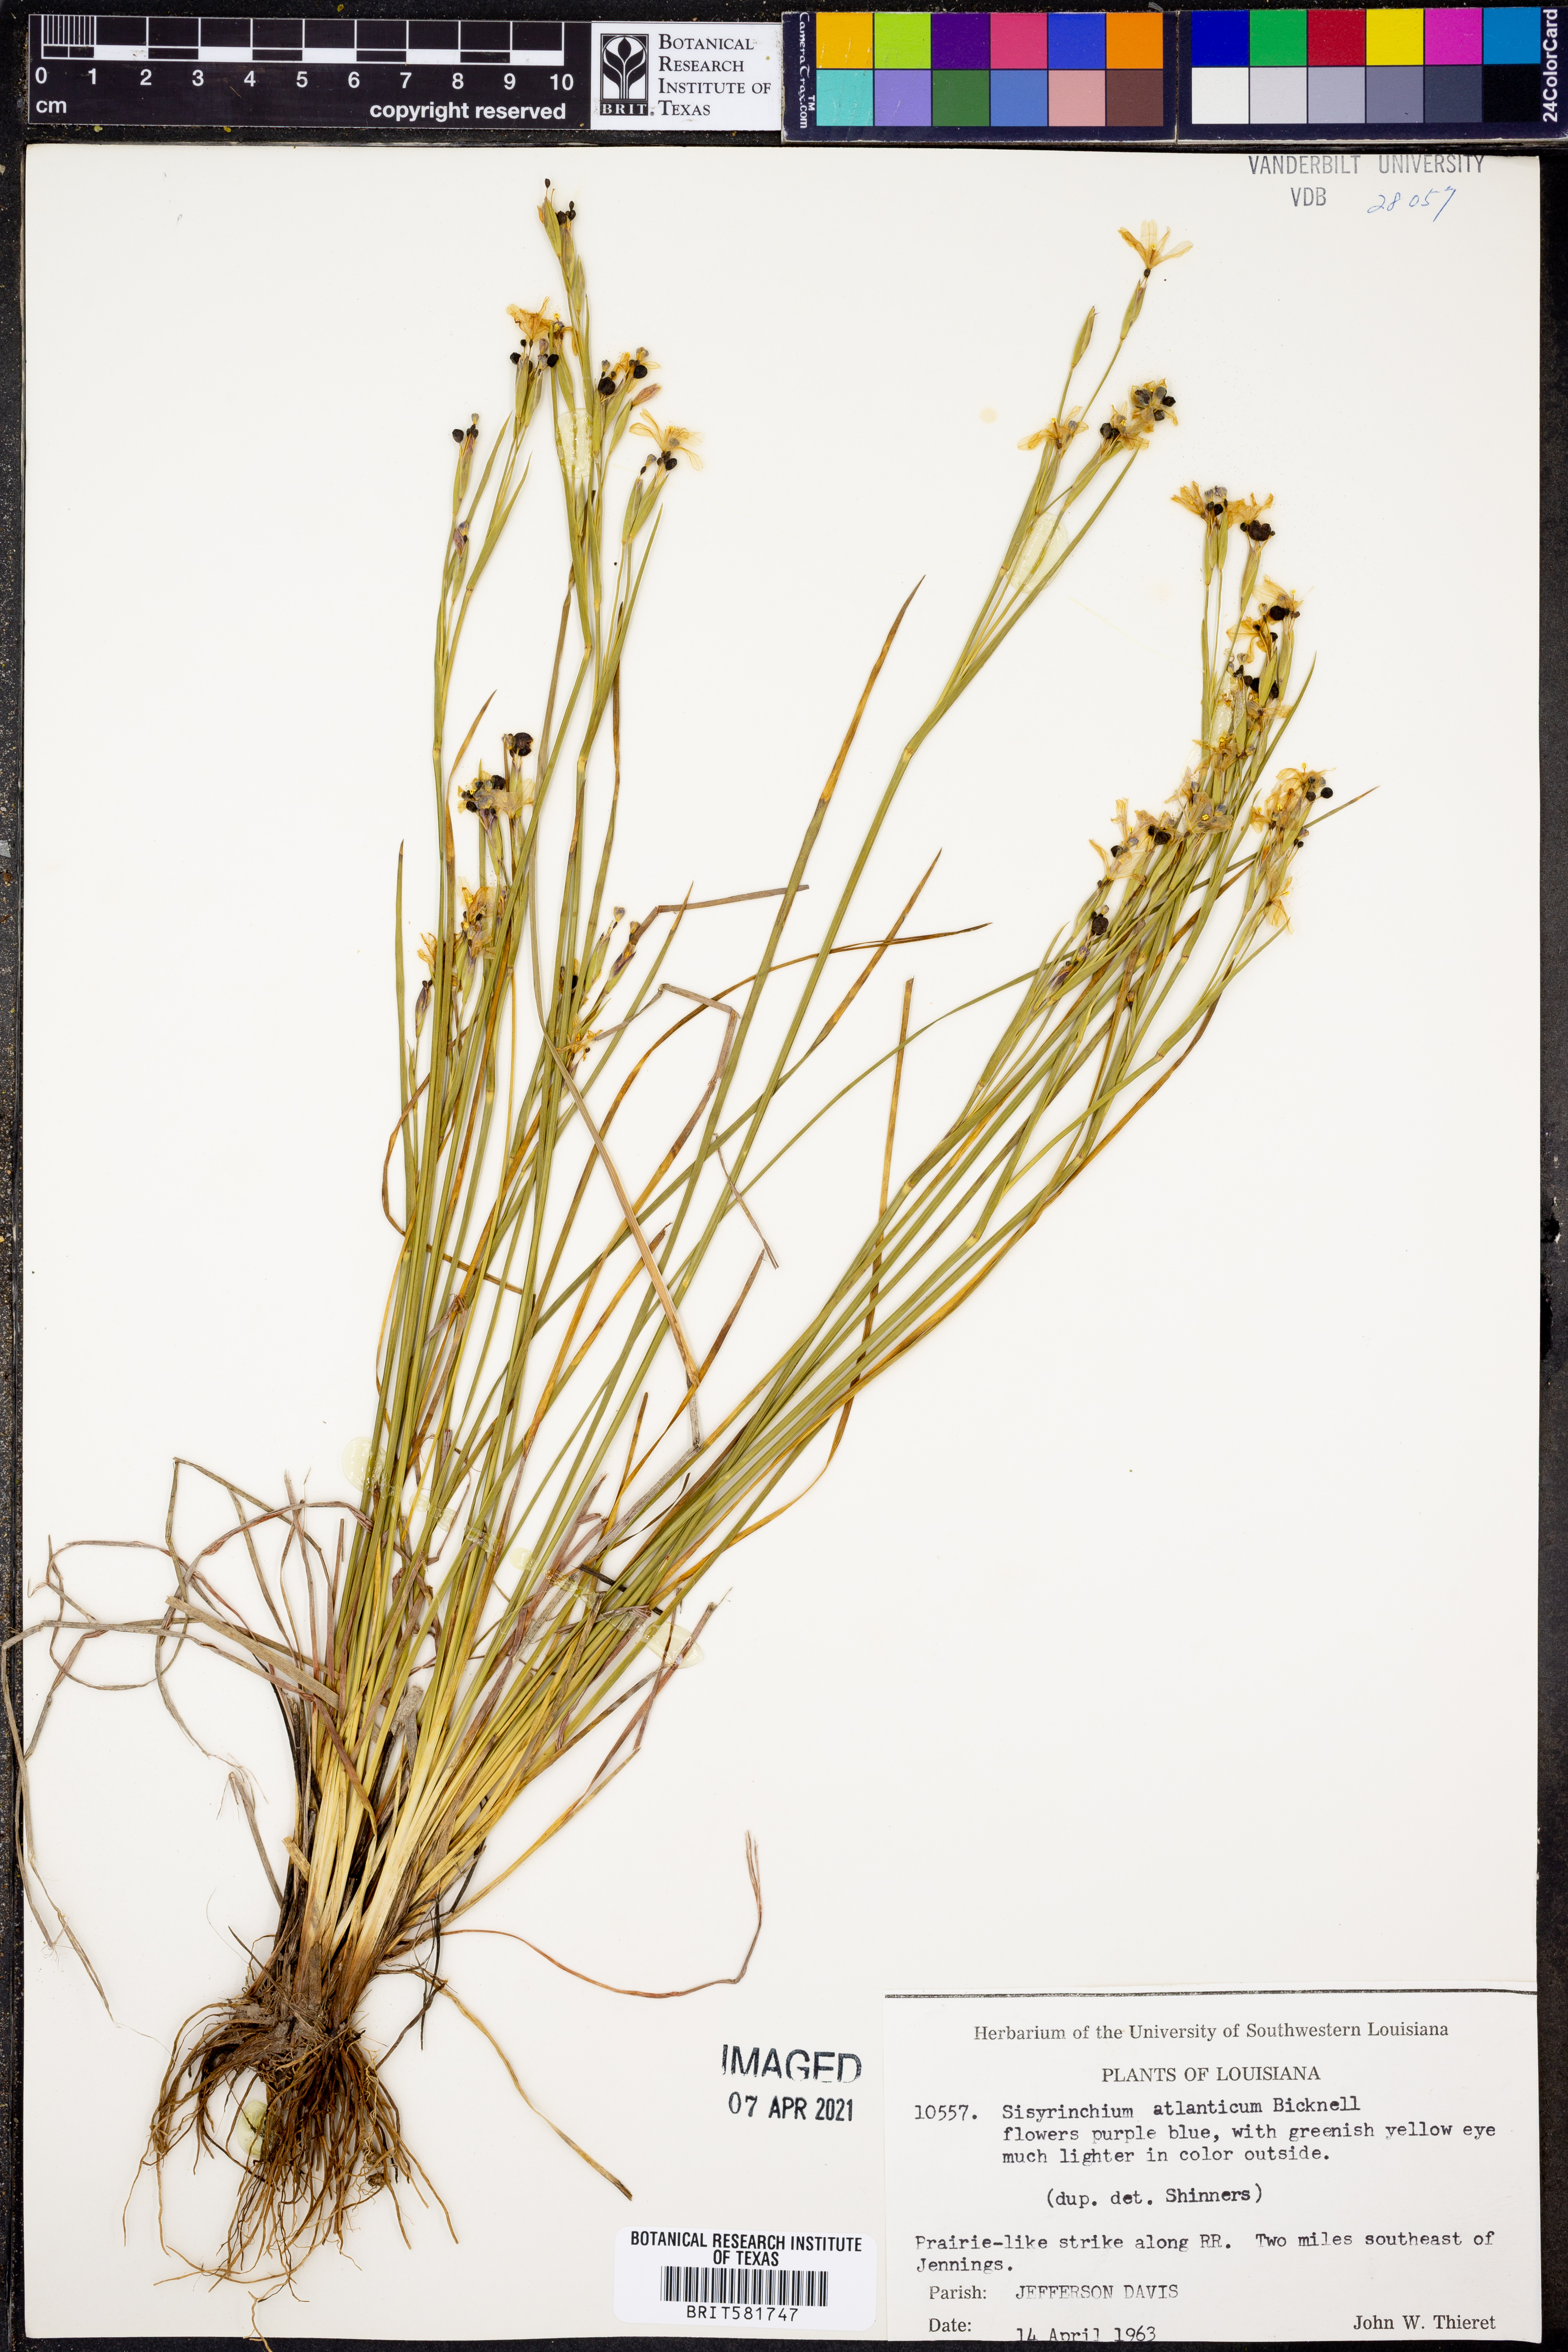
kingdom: Plantae
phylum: Tracheophyta
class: Liliopsida
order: Asparagales
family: Iridaceae
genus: Sisyrinchium
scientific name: Sisyrinchium atlanticum
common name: Eastern blue-eyed-grass
